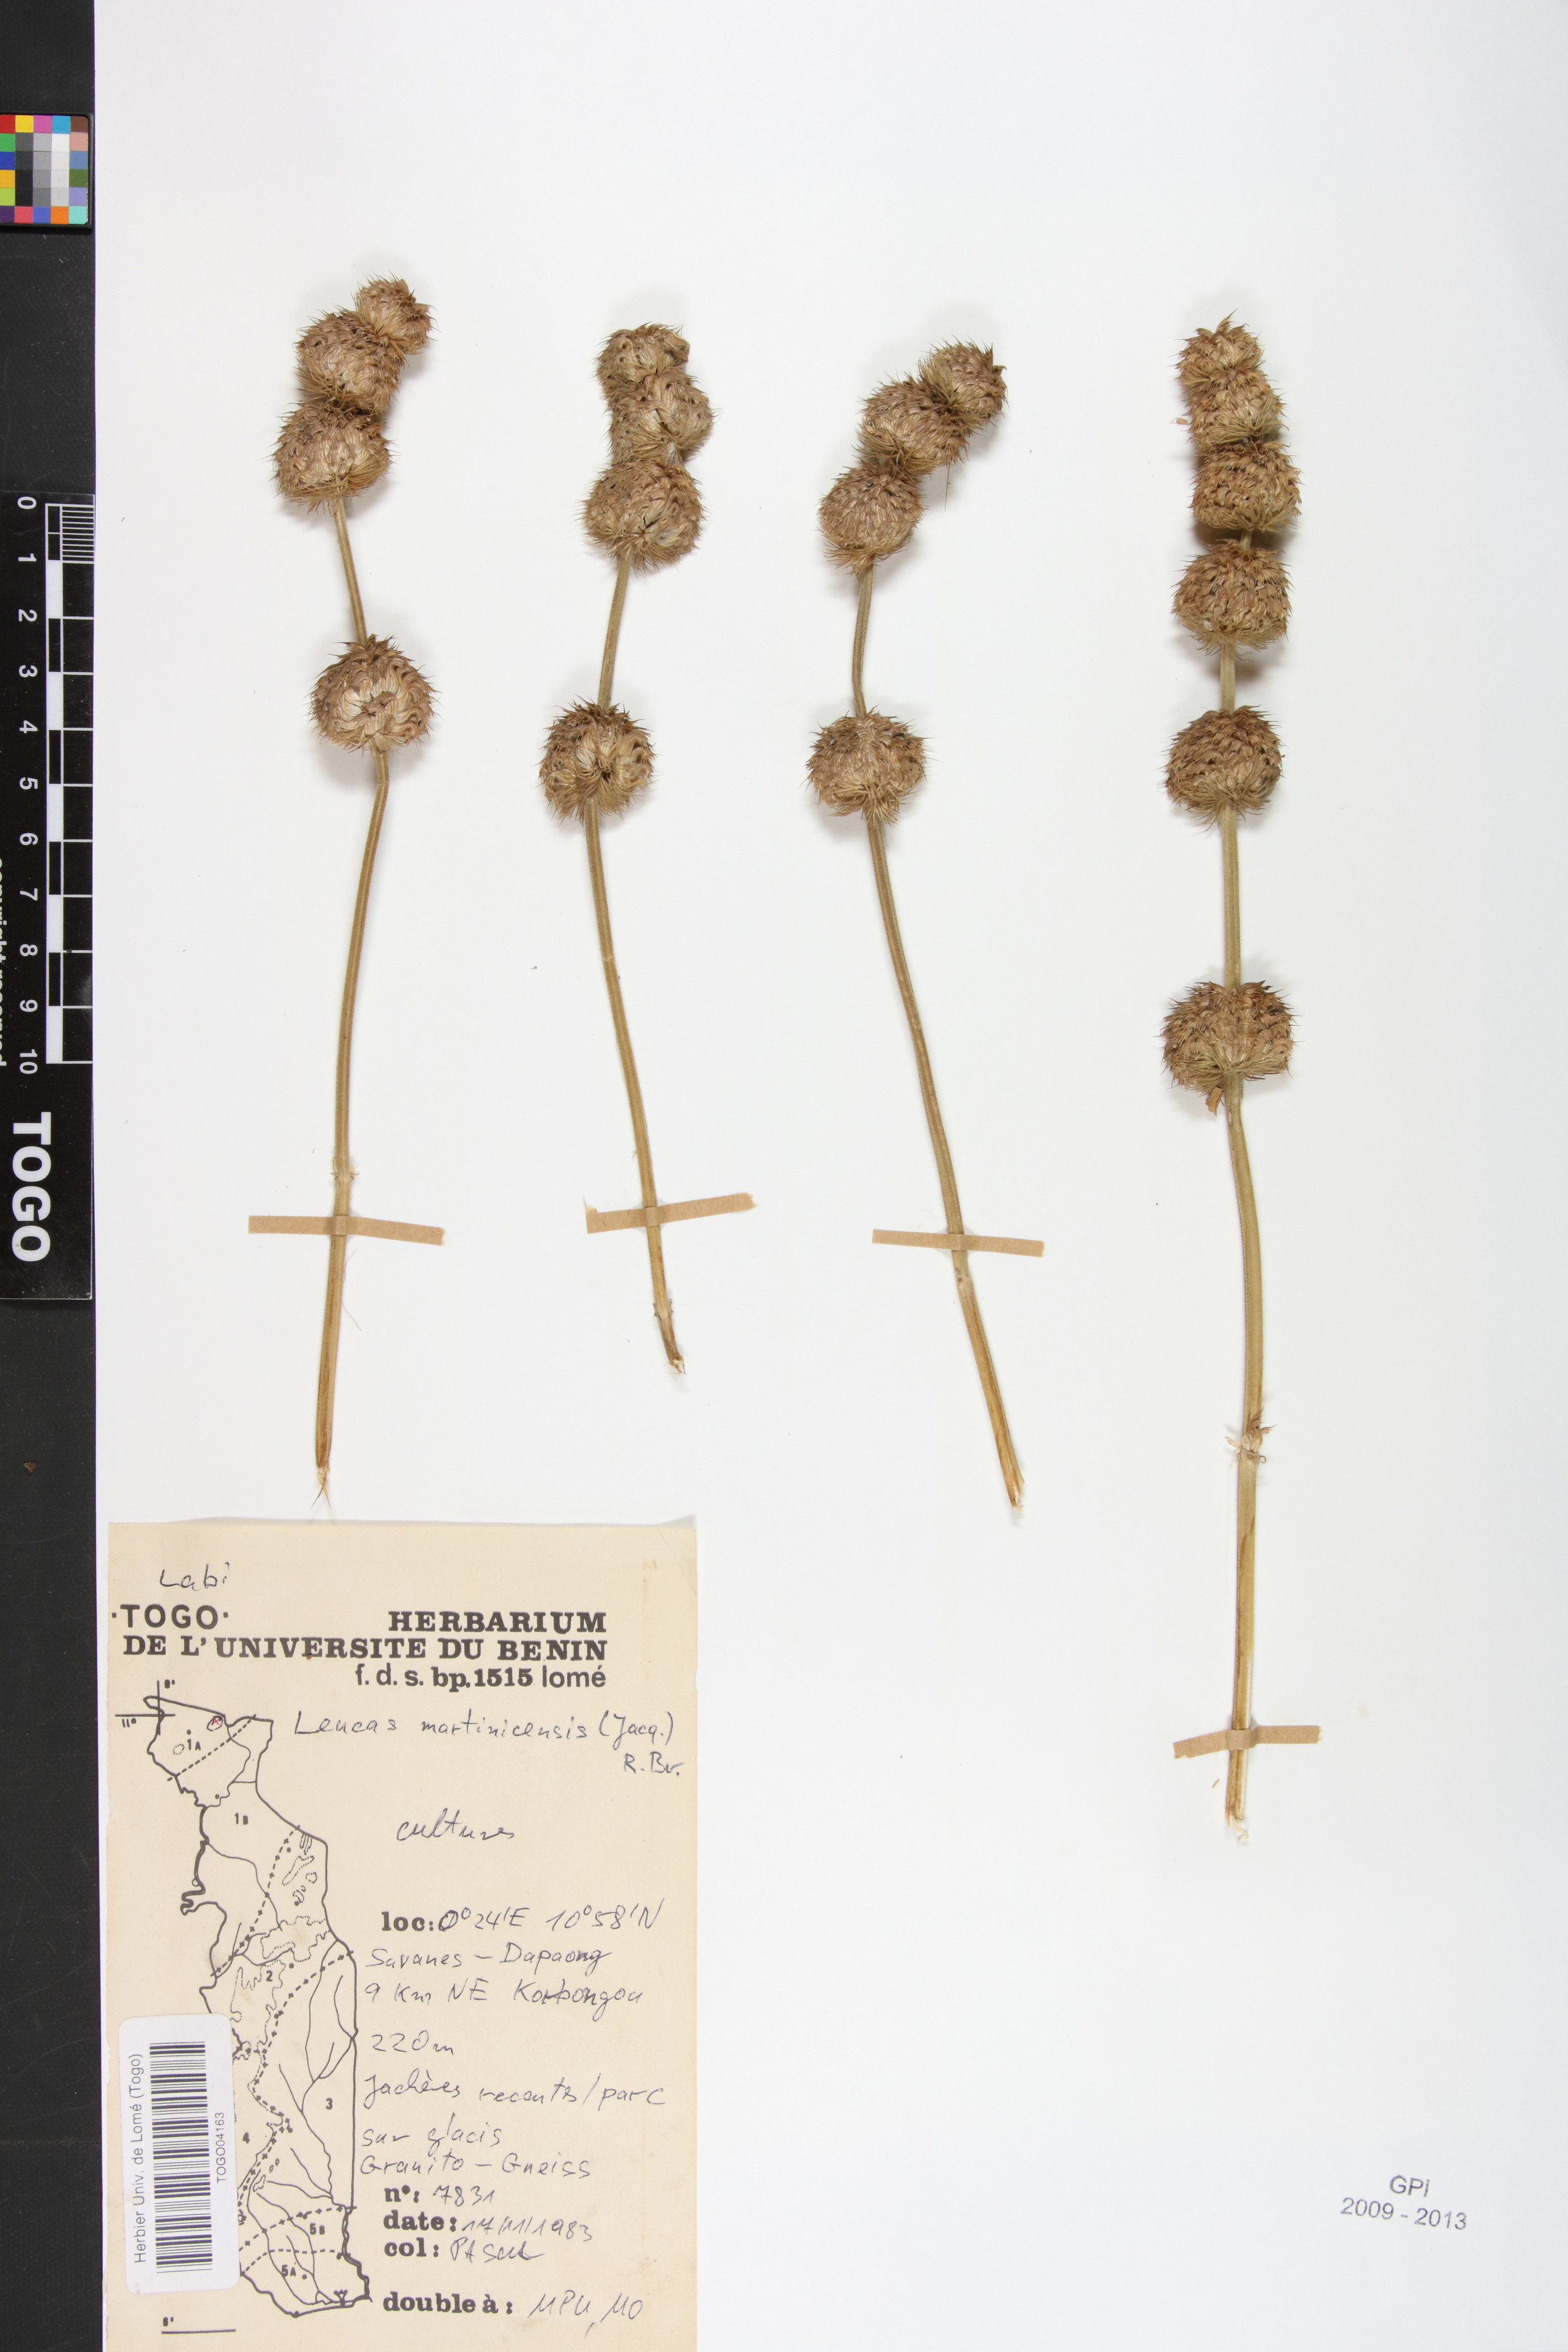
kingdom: Plantae
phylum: Tracheophyta
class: Magnoliopsida
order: Lamiales
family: Lamiaceae
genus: Leucas
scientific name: Leucas martinicensis
